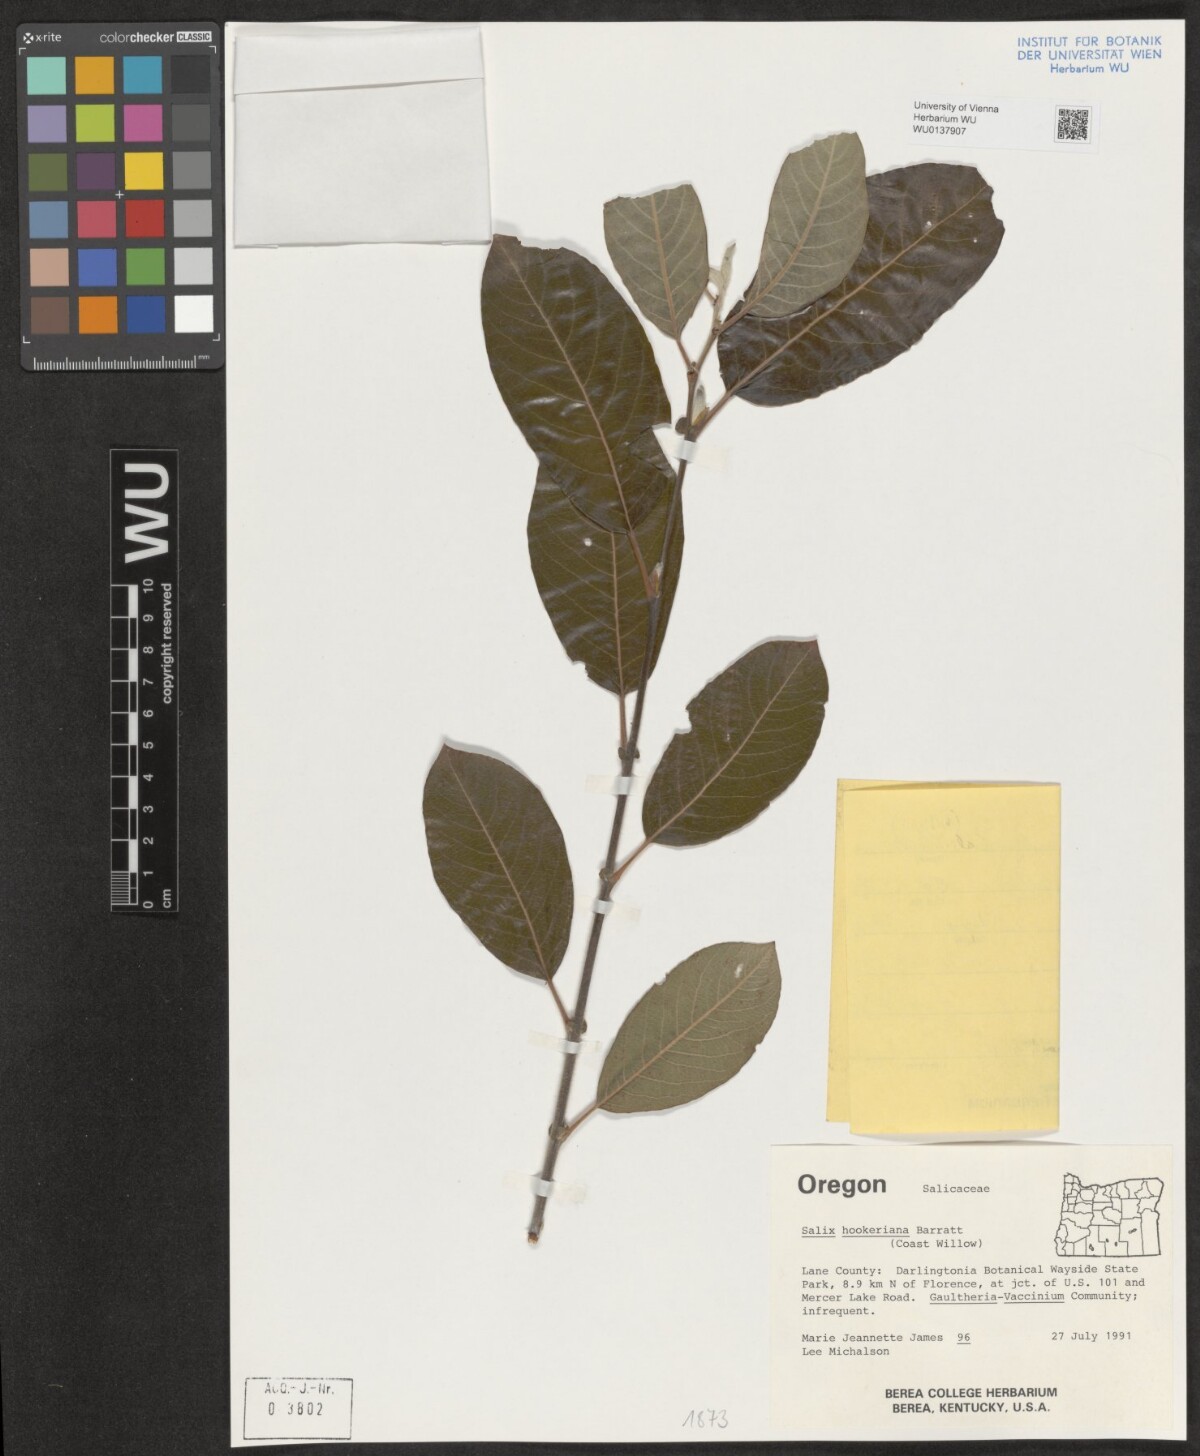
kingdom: Plantae
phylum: Tracheophyta
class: Magnoliopsida
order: Malpighiales
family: Salicaceae
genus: Salix
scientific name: Salix hookeriana
